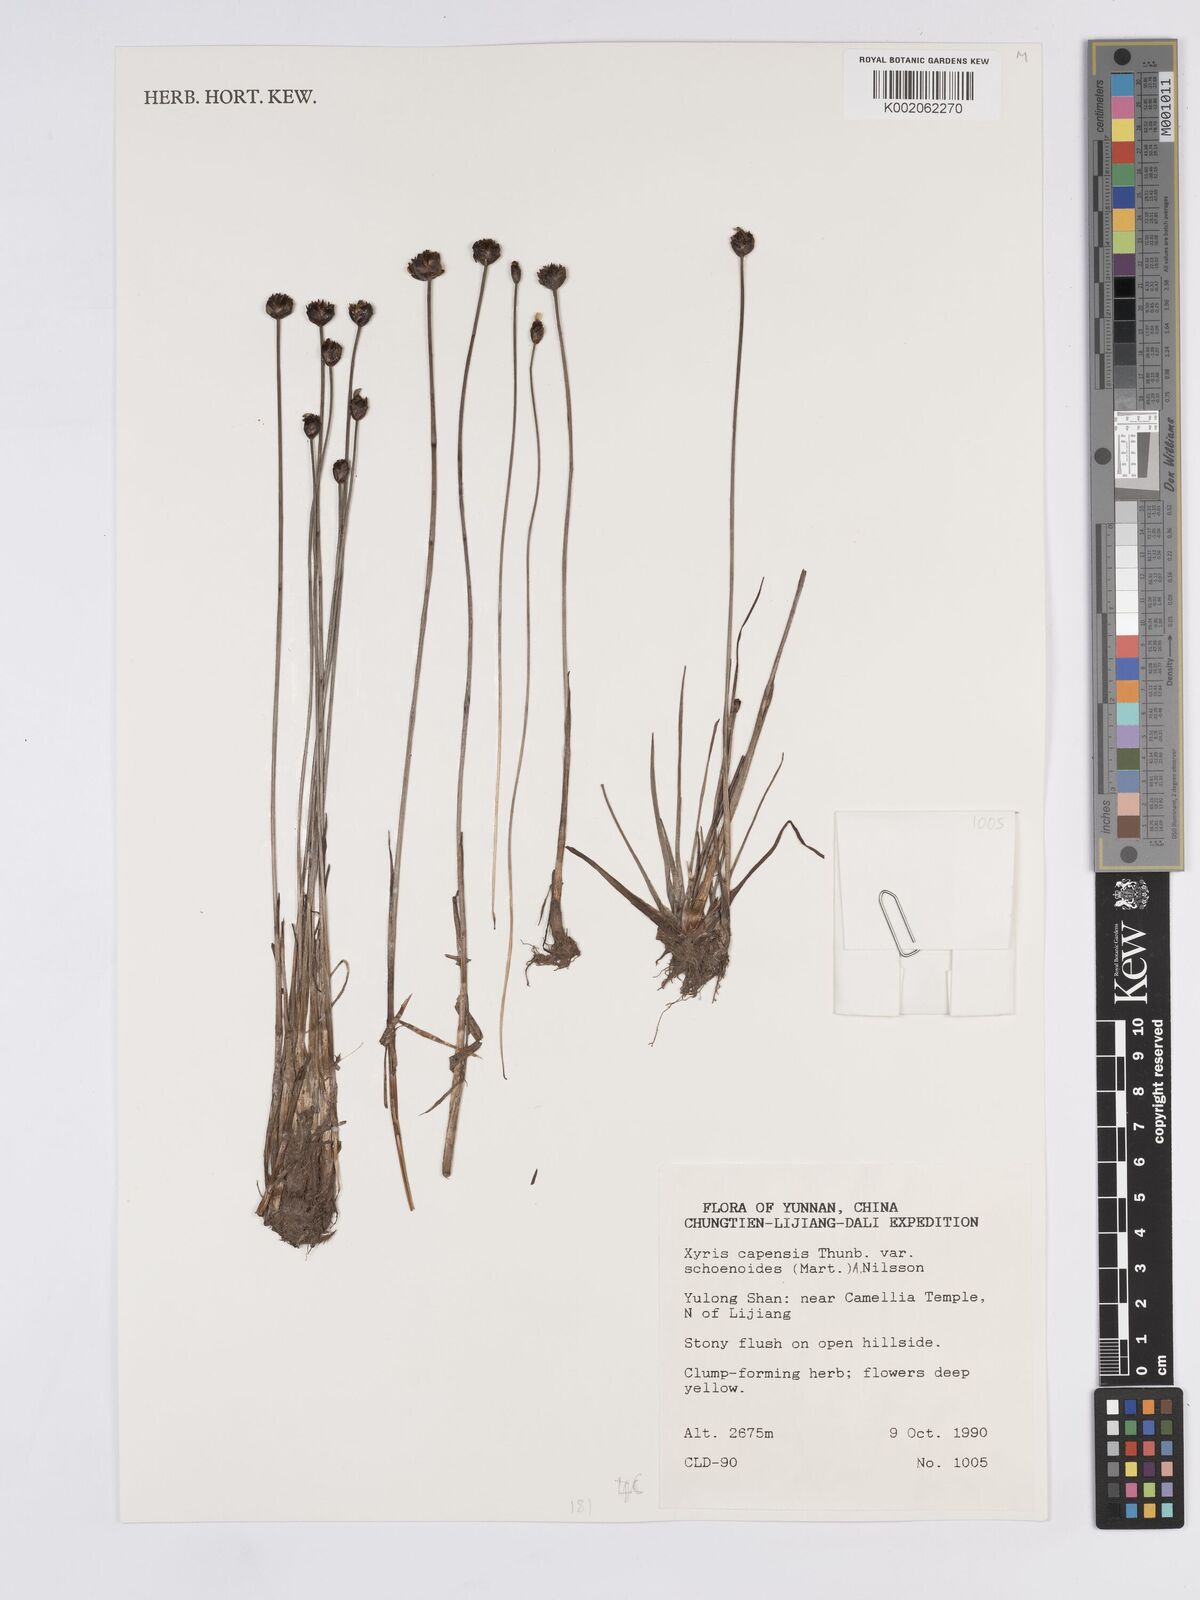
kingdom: Plantae
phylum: Tracheophyta
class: Liliopsida
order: Poales
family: Xyridaceae
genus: Xyris
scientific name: Xyris capensis
